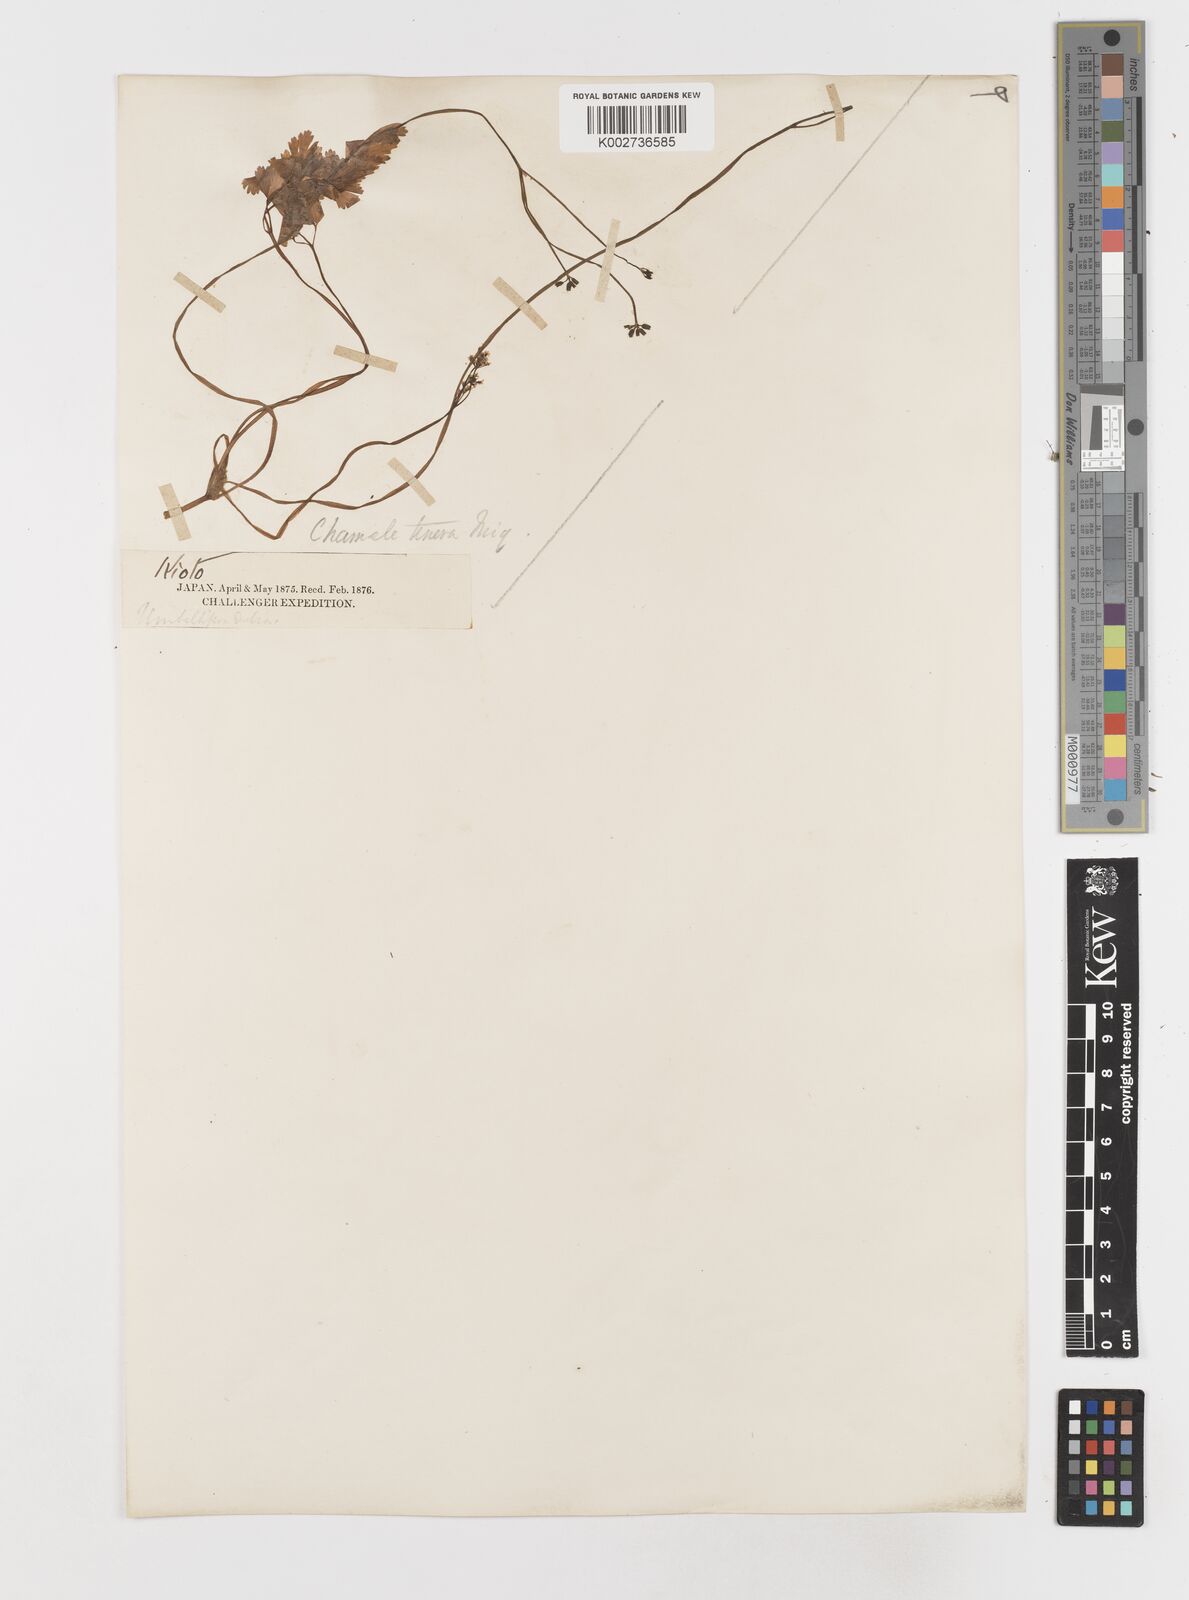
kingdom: Plantae
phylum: Tracheophyta
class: Magnoliopsida
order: Apiales
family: Apiaceae
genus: Aegopodium
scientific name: Aegopodium decumbens
